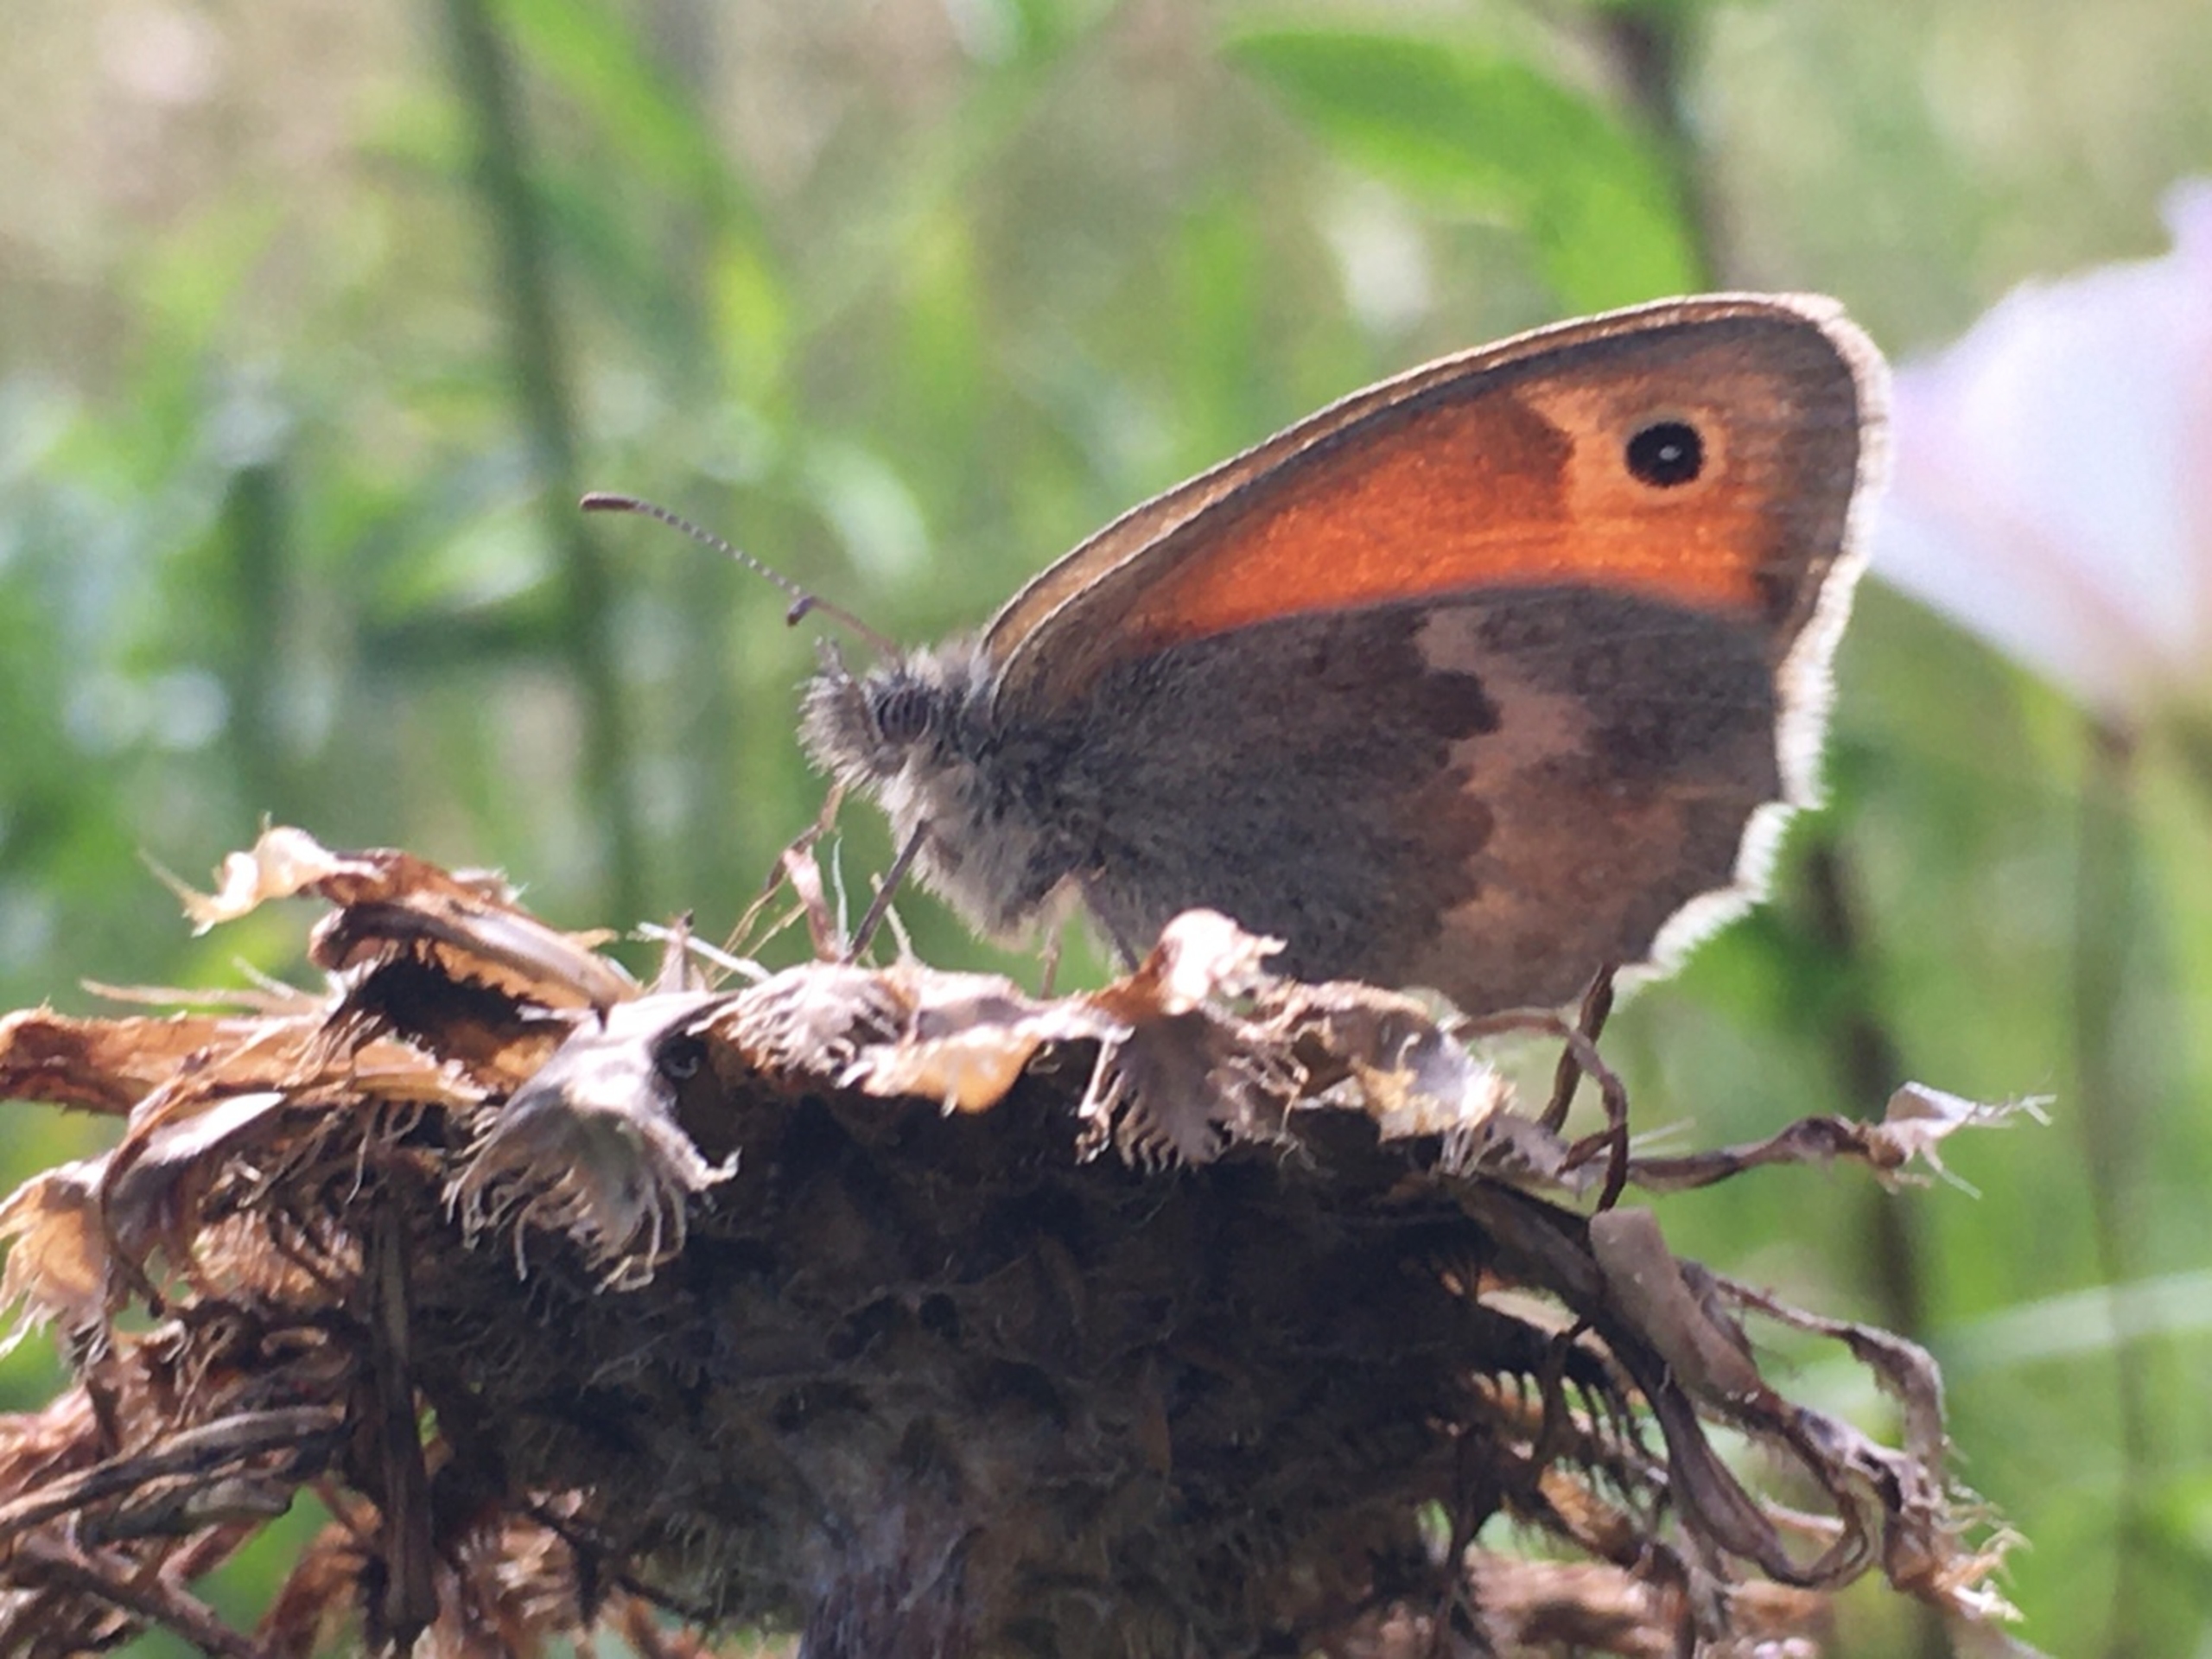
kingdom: Animalia
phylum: Arthropoda
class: Insecta
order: Lepidoptera
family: Nymphalidae
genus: Coenonympha
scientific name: Coenonympha pamphilus
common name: Okkergul randøje
